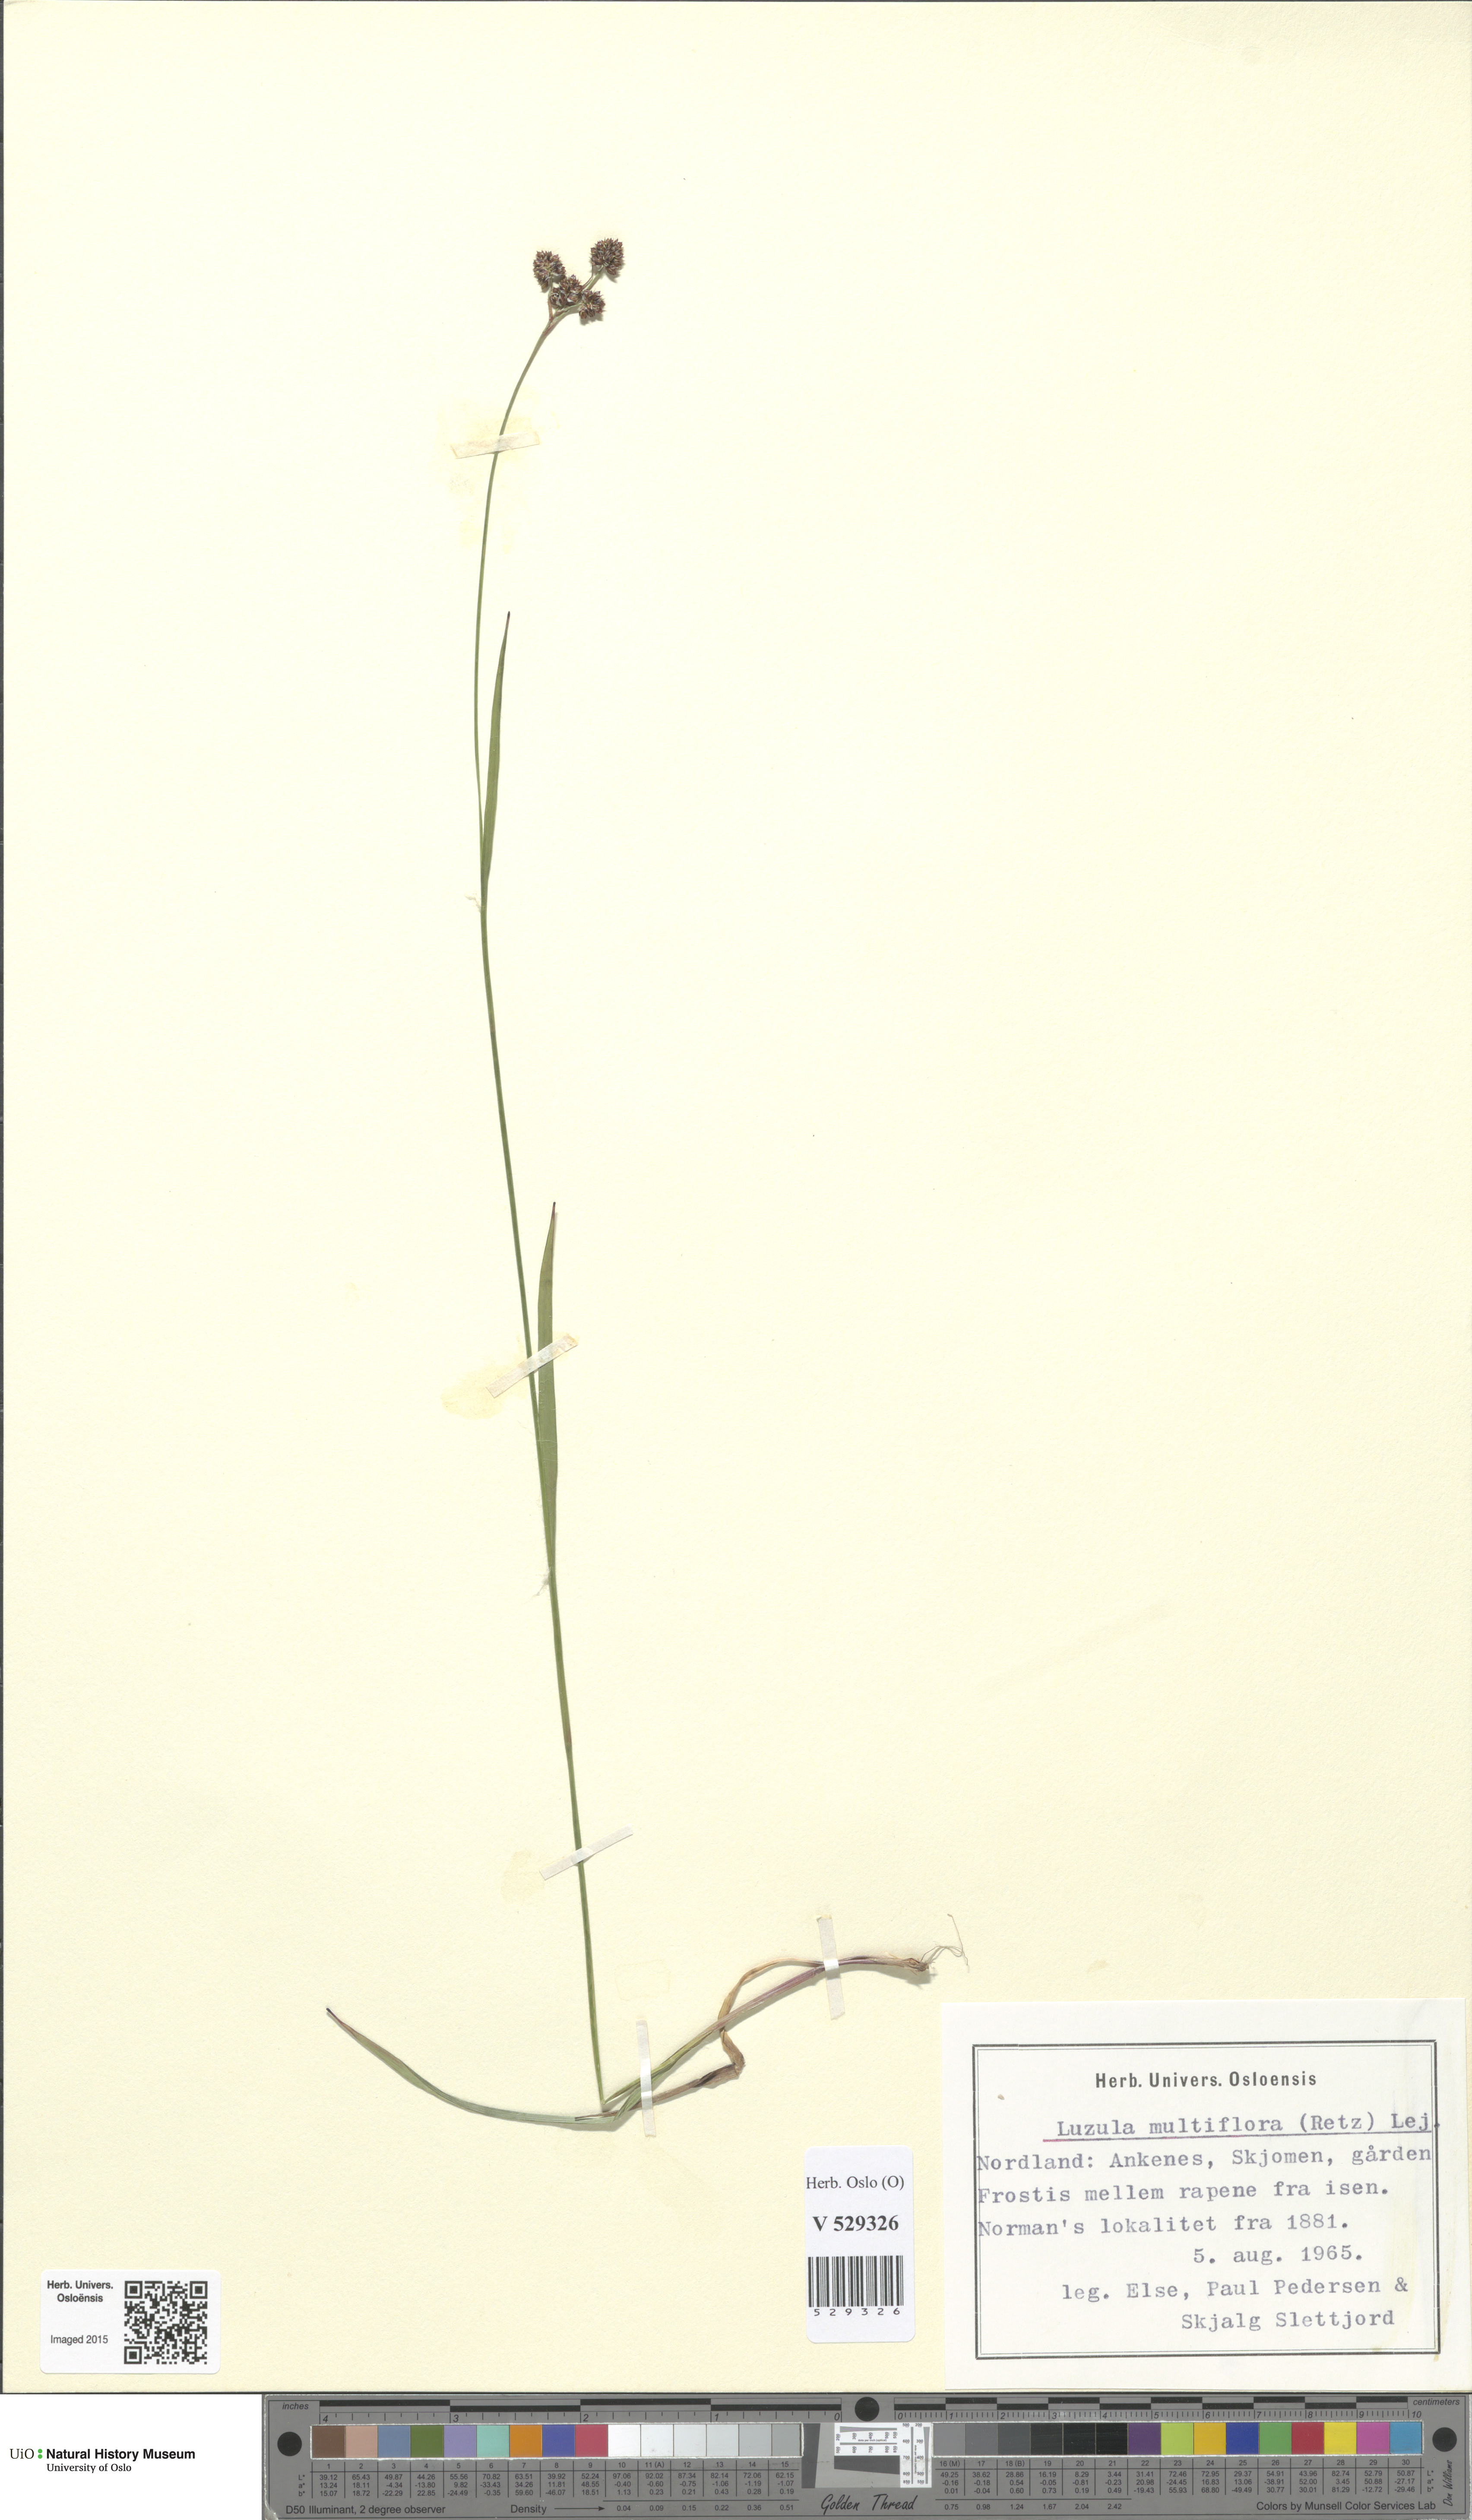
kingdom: Plantae
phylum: Tracheophyta
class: Liliopsida
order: Poales
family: Juncaceae
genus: Luzula
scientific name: Luzula multiflora
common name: Heath wood-rush
